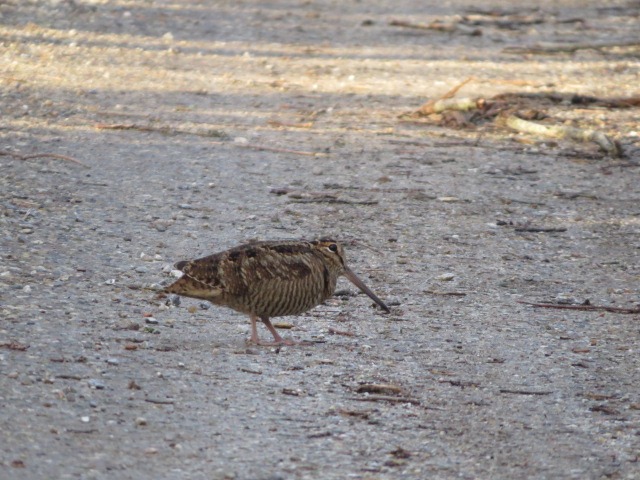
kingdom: Animalia
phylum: Chordata
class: Aves
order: Charadriiformes
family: Scolopacidae
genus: Scolopax
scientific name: Scolopax rusticola
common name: Skovsneppe
